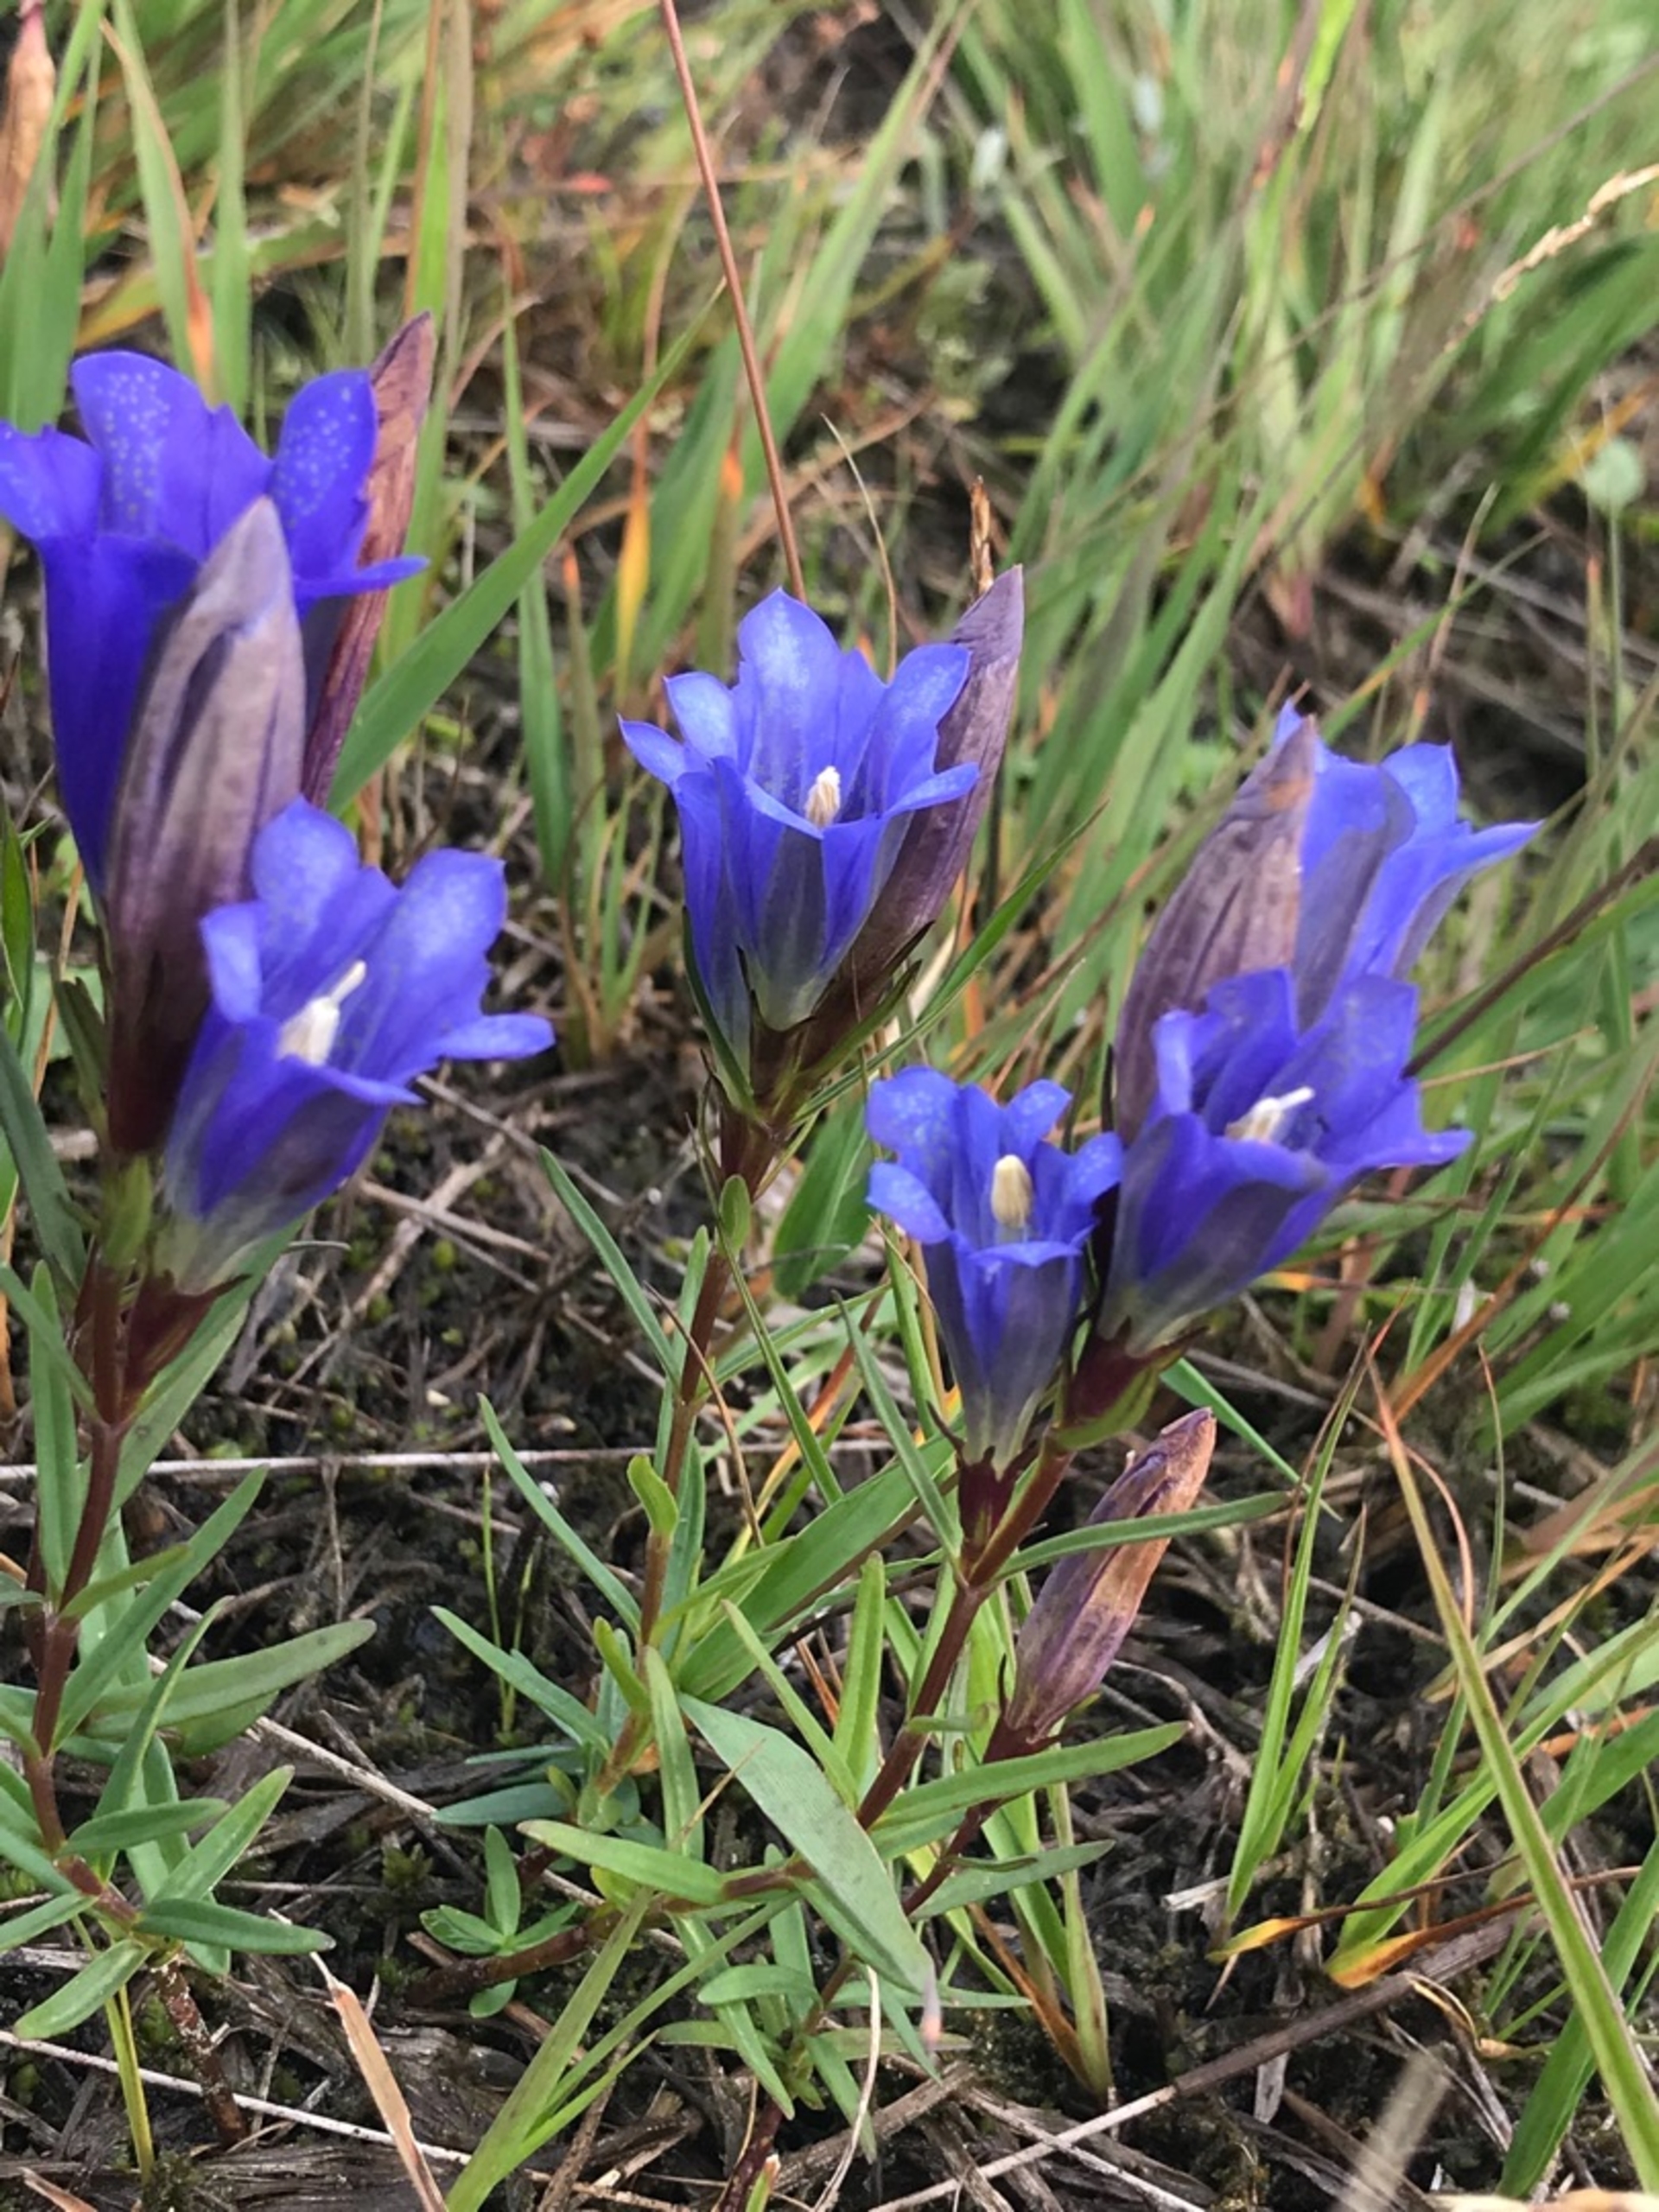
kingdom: Plantae
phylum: Tracheophyta
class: Magnoliopsida
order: Gentianales
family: Gentianaceae
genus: Gentiana
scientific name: Gentiana pneumonanthe
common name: Klokke-ensian
